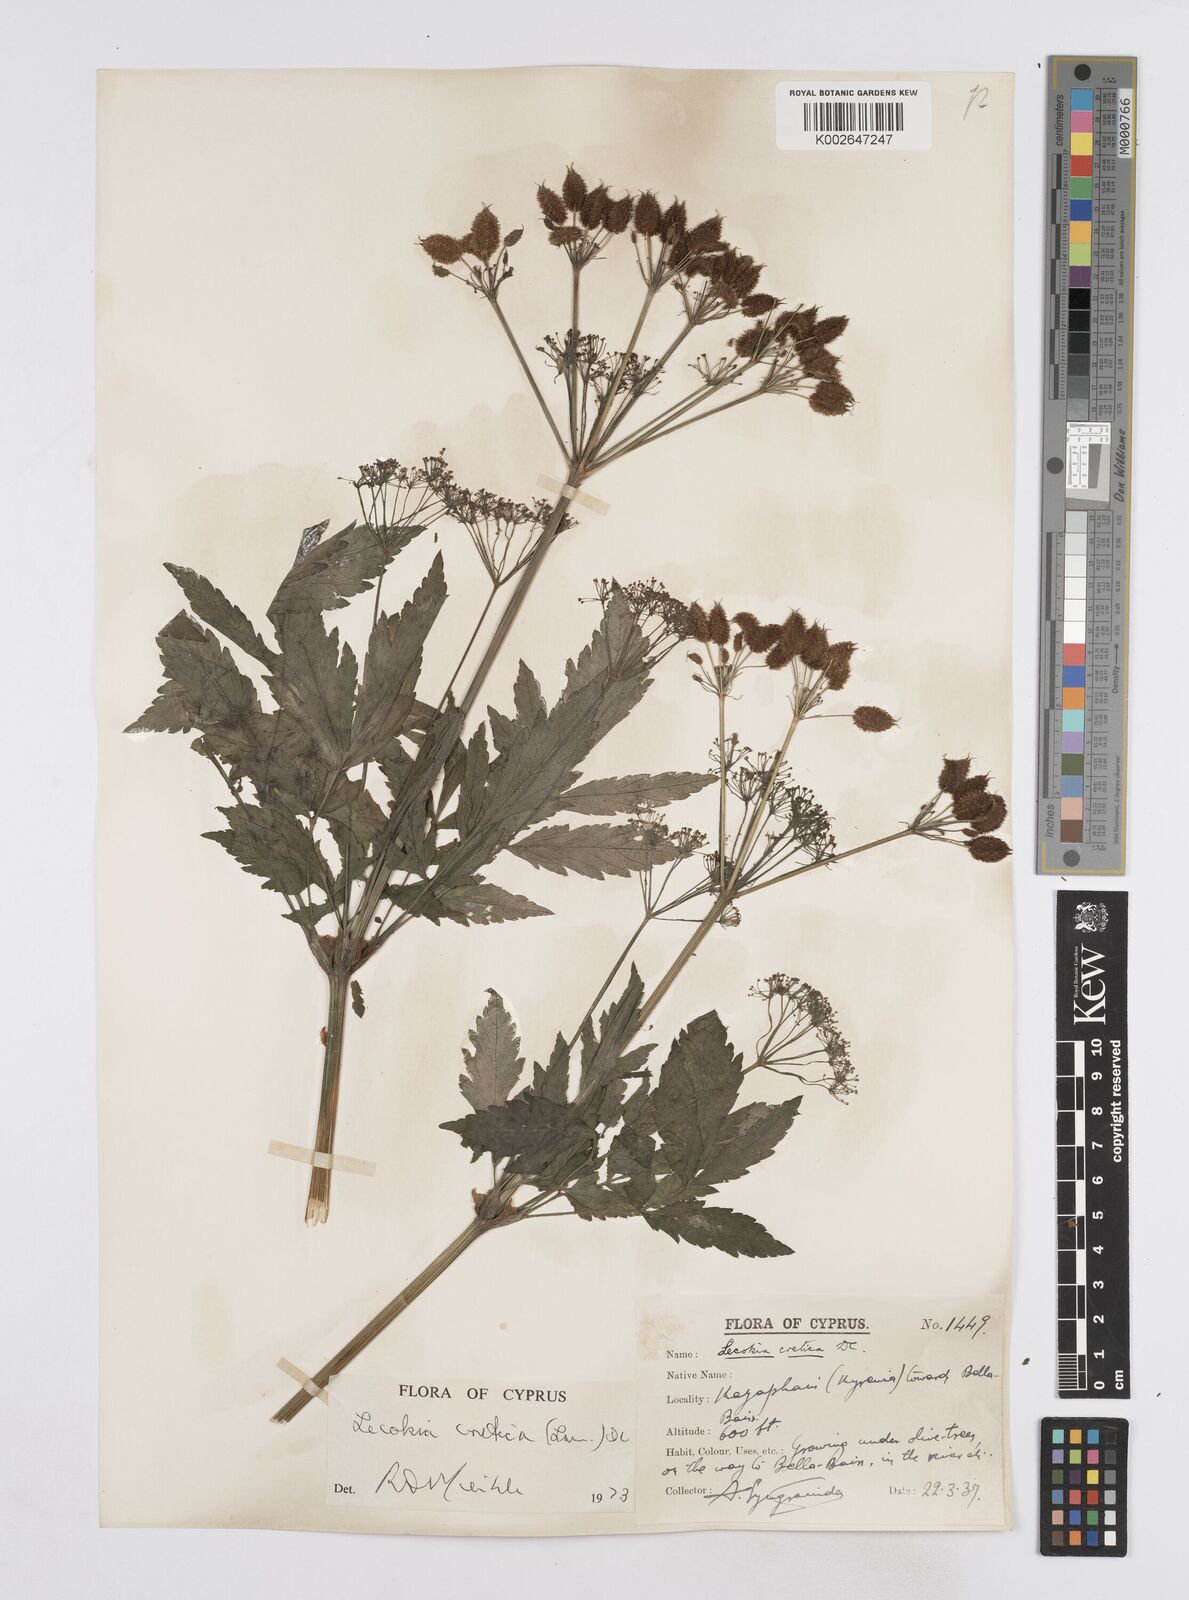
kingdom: Plantae
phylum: Tracheophyta
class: Magnoliopsida
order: Apiales
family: Apiaceae
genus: Lecokia
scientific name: Lecokia cretica
